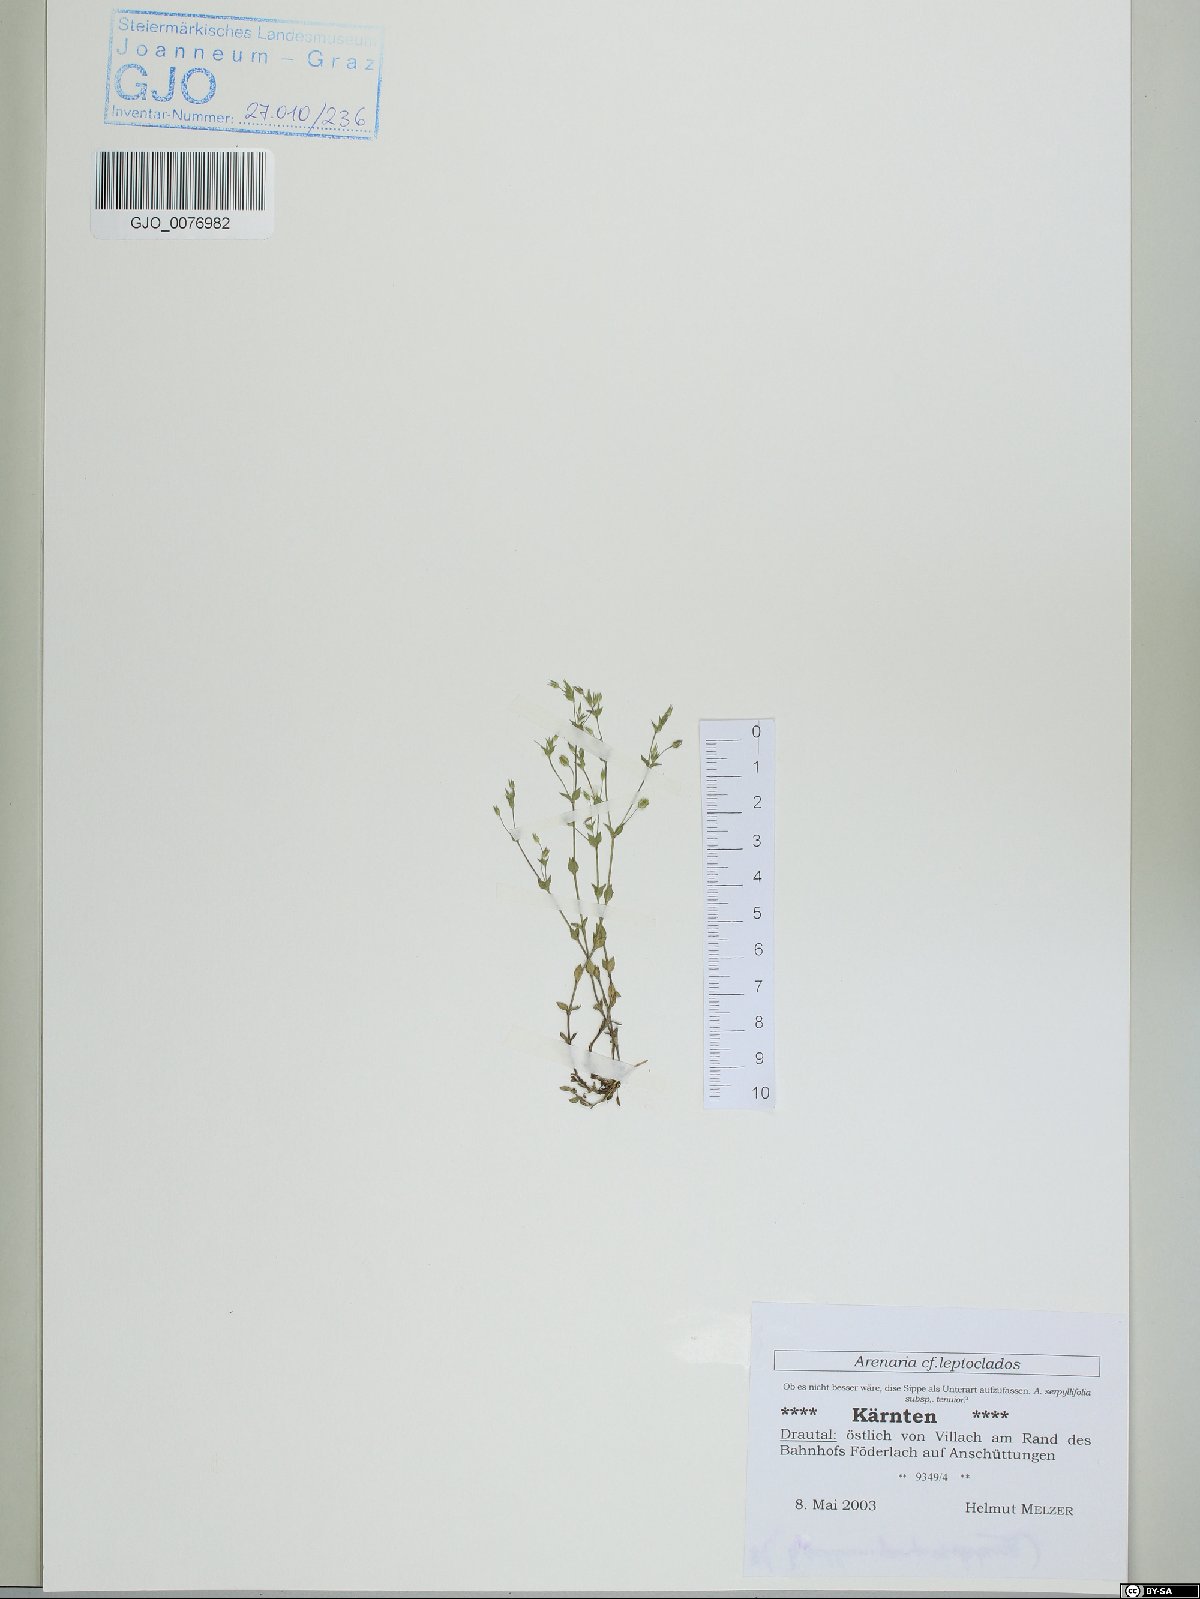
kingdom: Plantae
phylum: Tracheophyta
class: Magnoliopsida
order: Caryophyllales
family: Caryophyllaceae
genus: Arenaria
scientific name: Arenaria leptoclados
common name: Thyme-leaved sandwort
